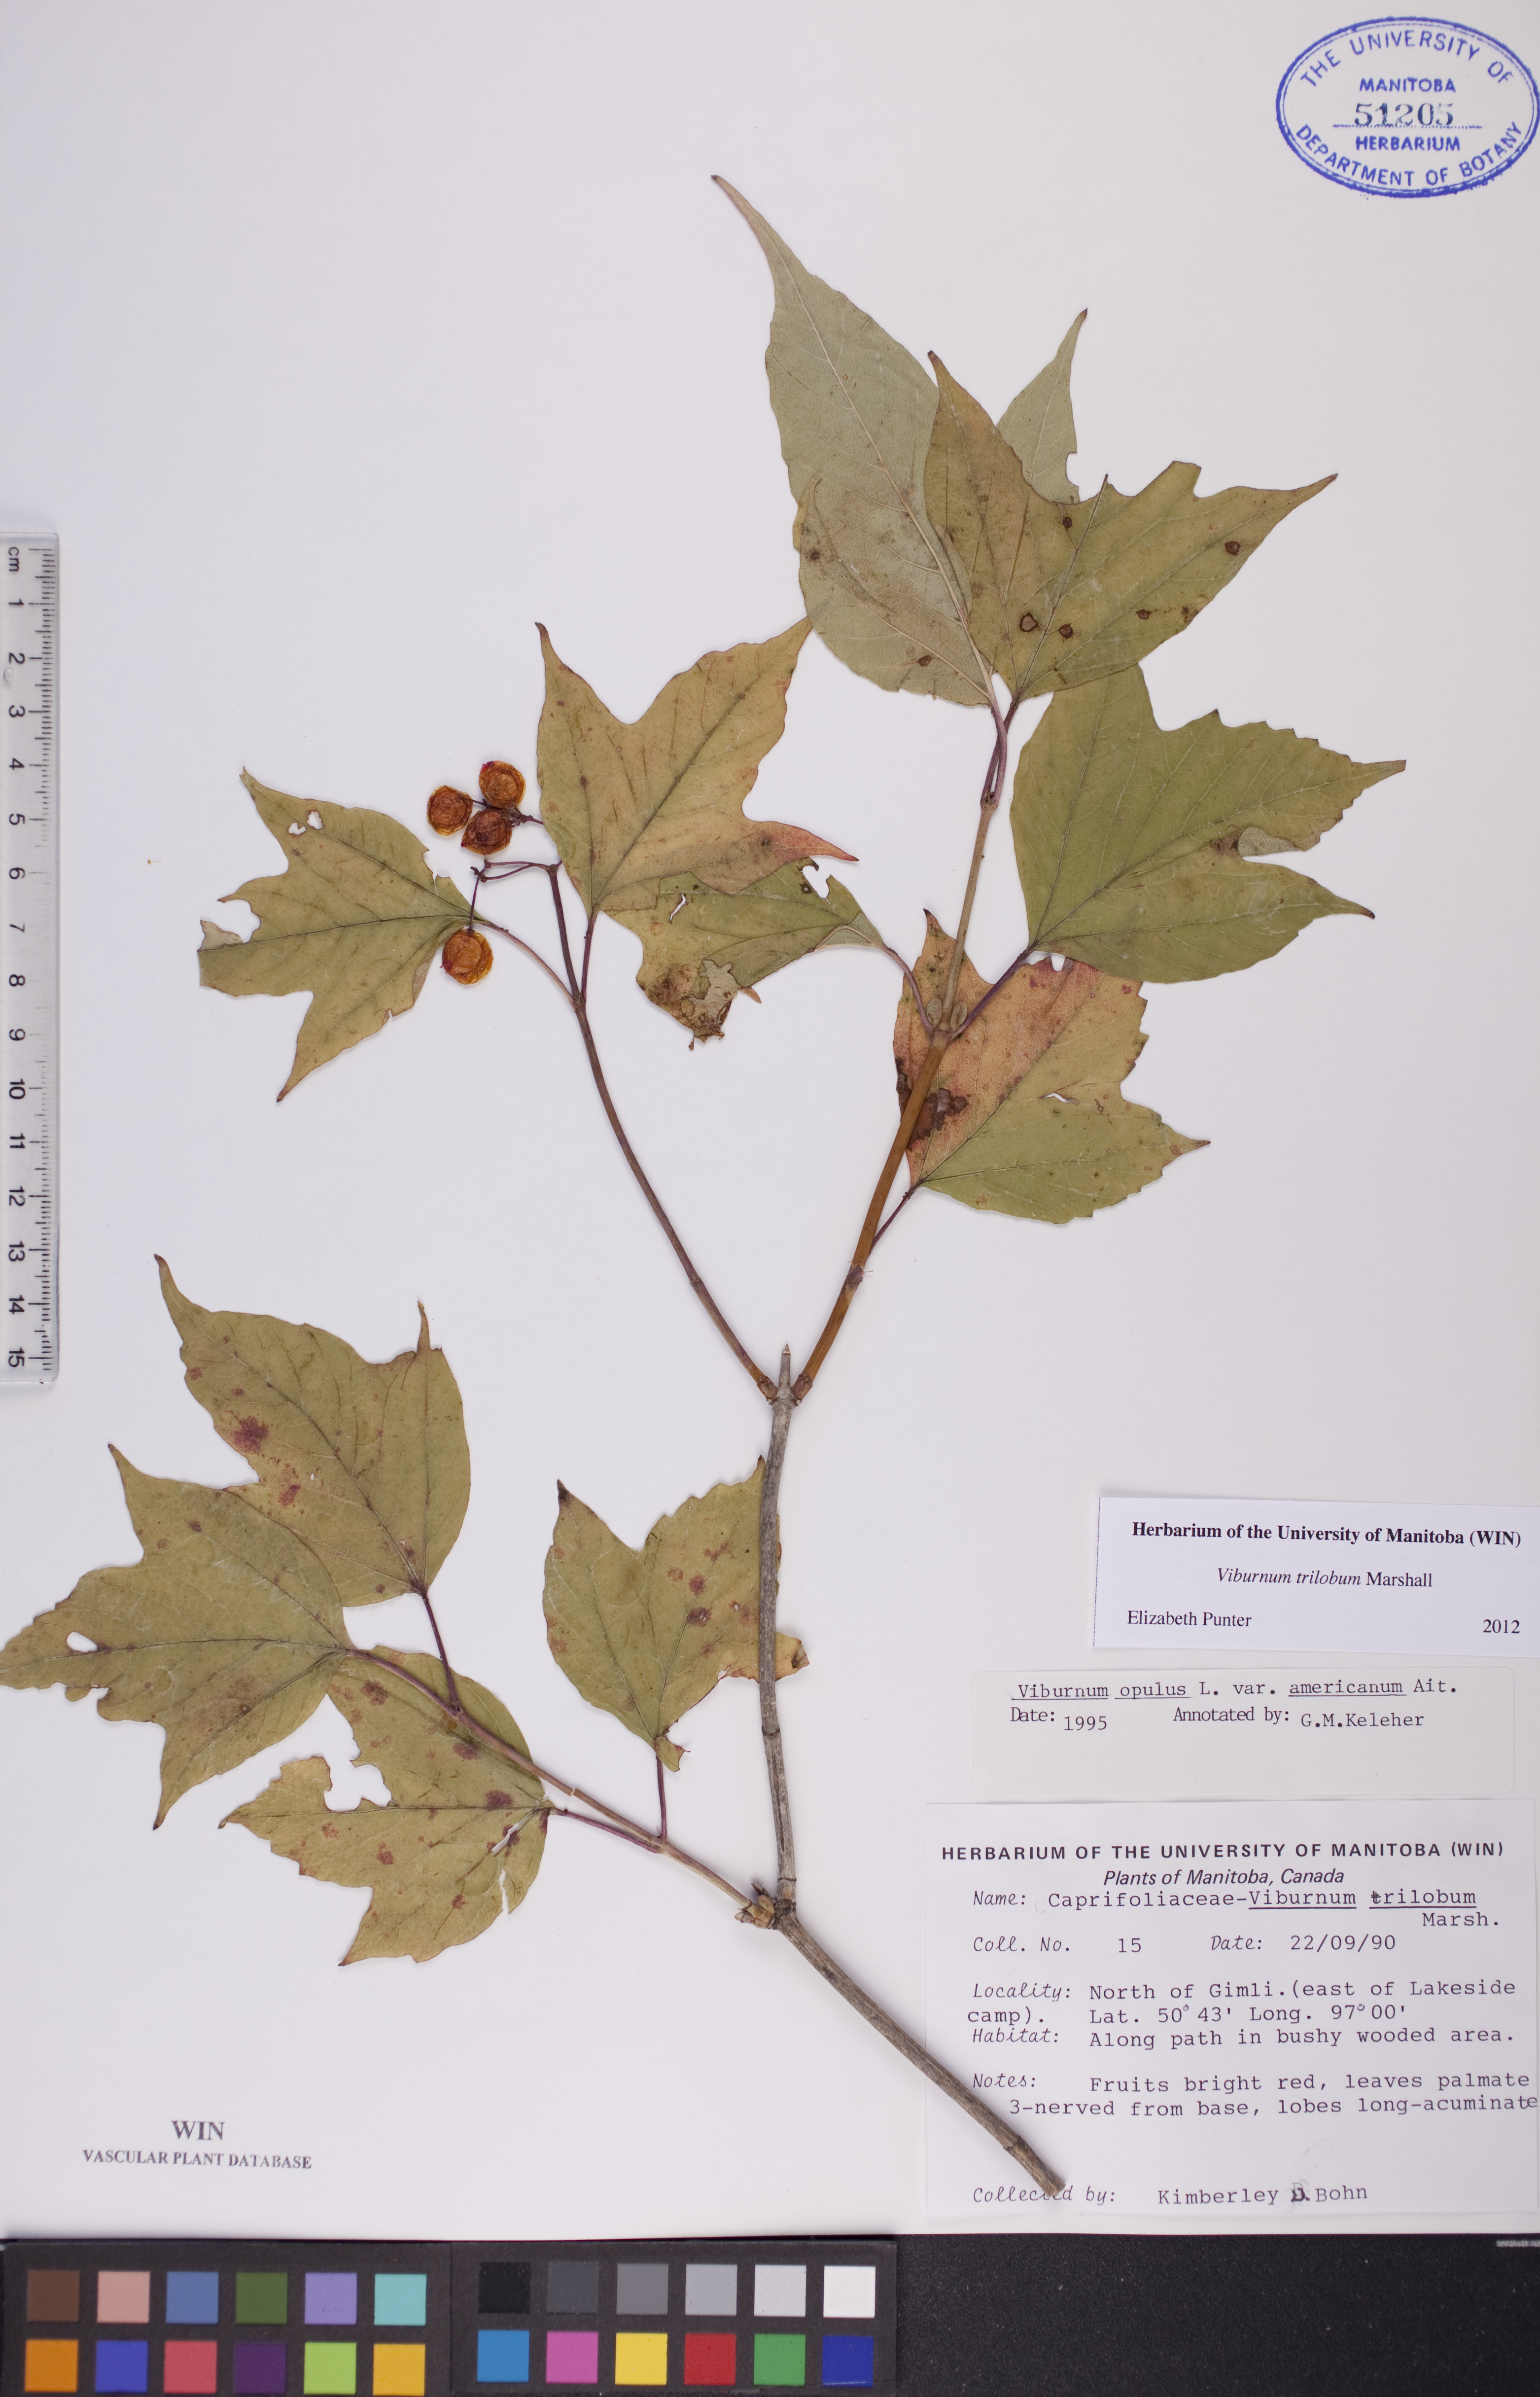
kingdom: Plantae
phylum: Tracheophyta
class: Magnoliopsida
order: Dipsacales
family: Viburnaceae
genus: Viburnum
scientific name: Viburnum trilobum
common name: American cranberrybush
